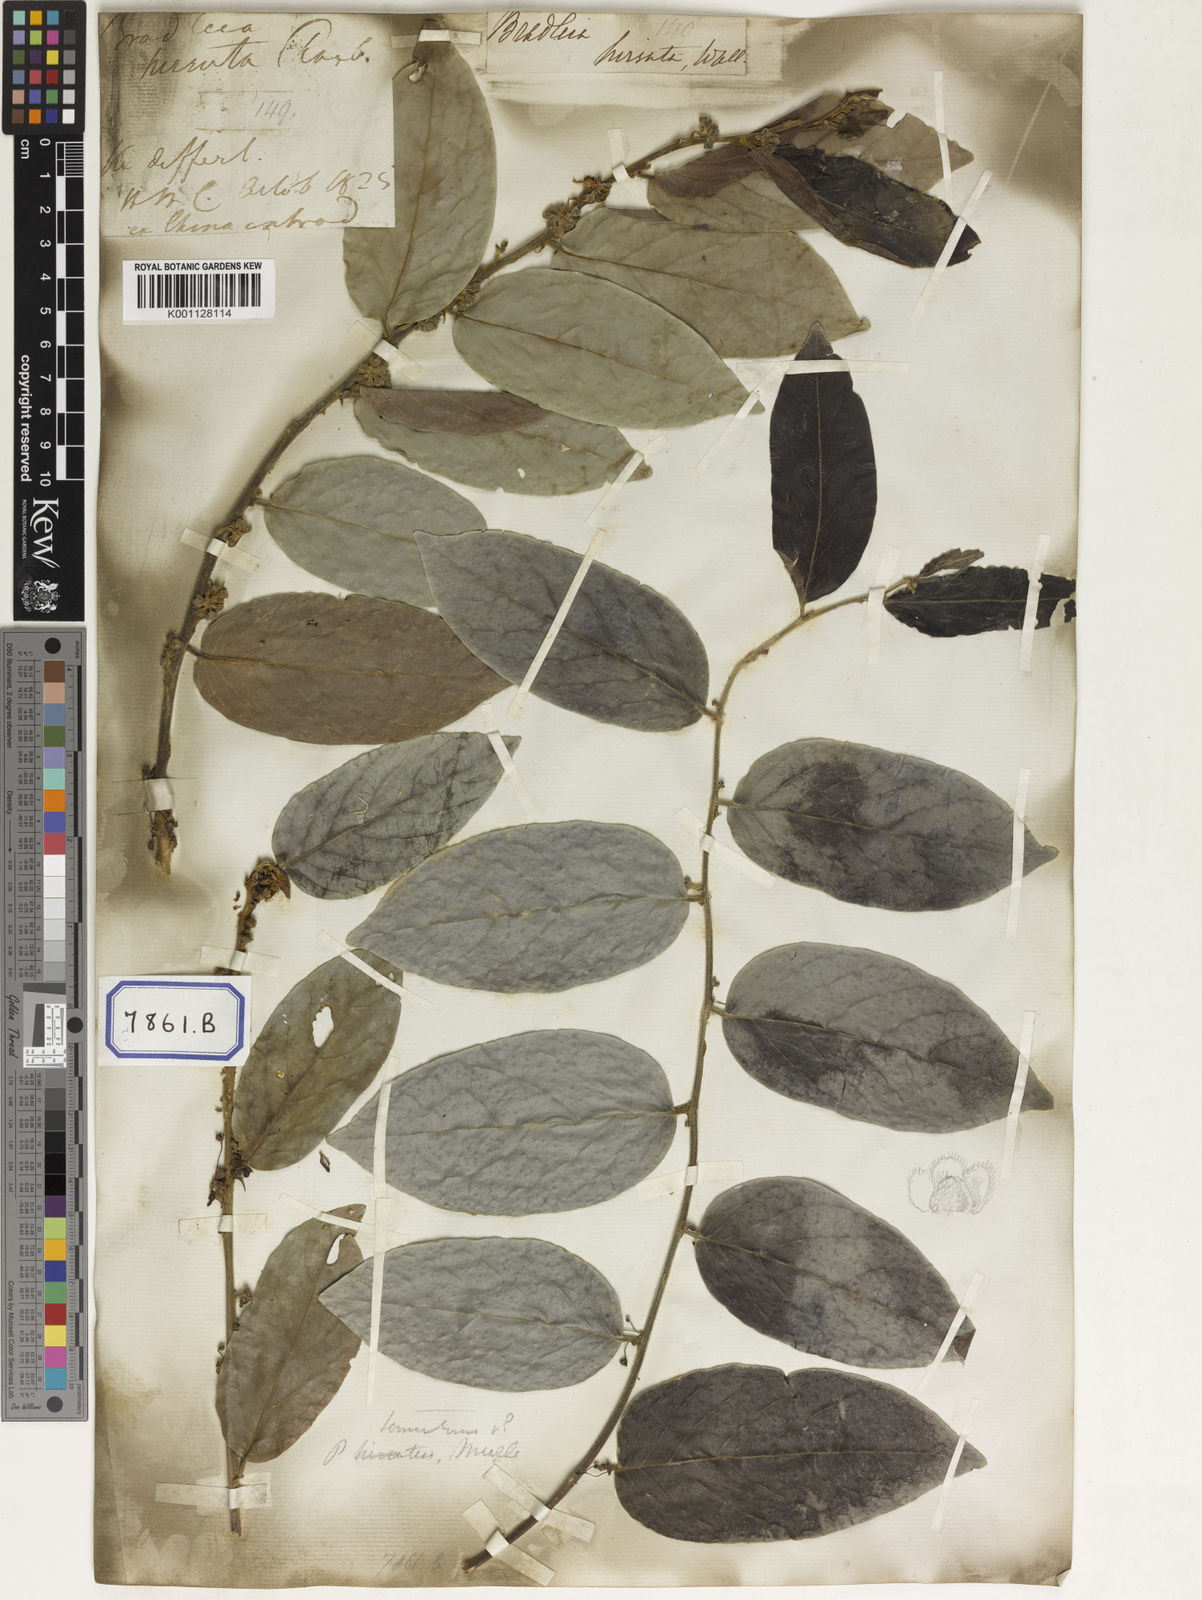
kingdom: Plantae
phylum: Tracheophyta
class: Magnoliopsida
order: Malpighiales
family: Euphorbiaceae
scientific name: Euphorbiaceae
